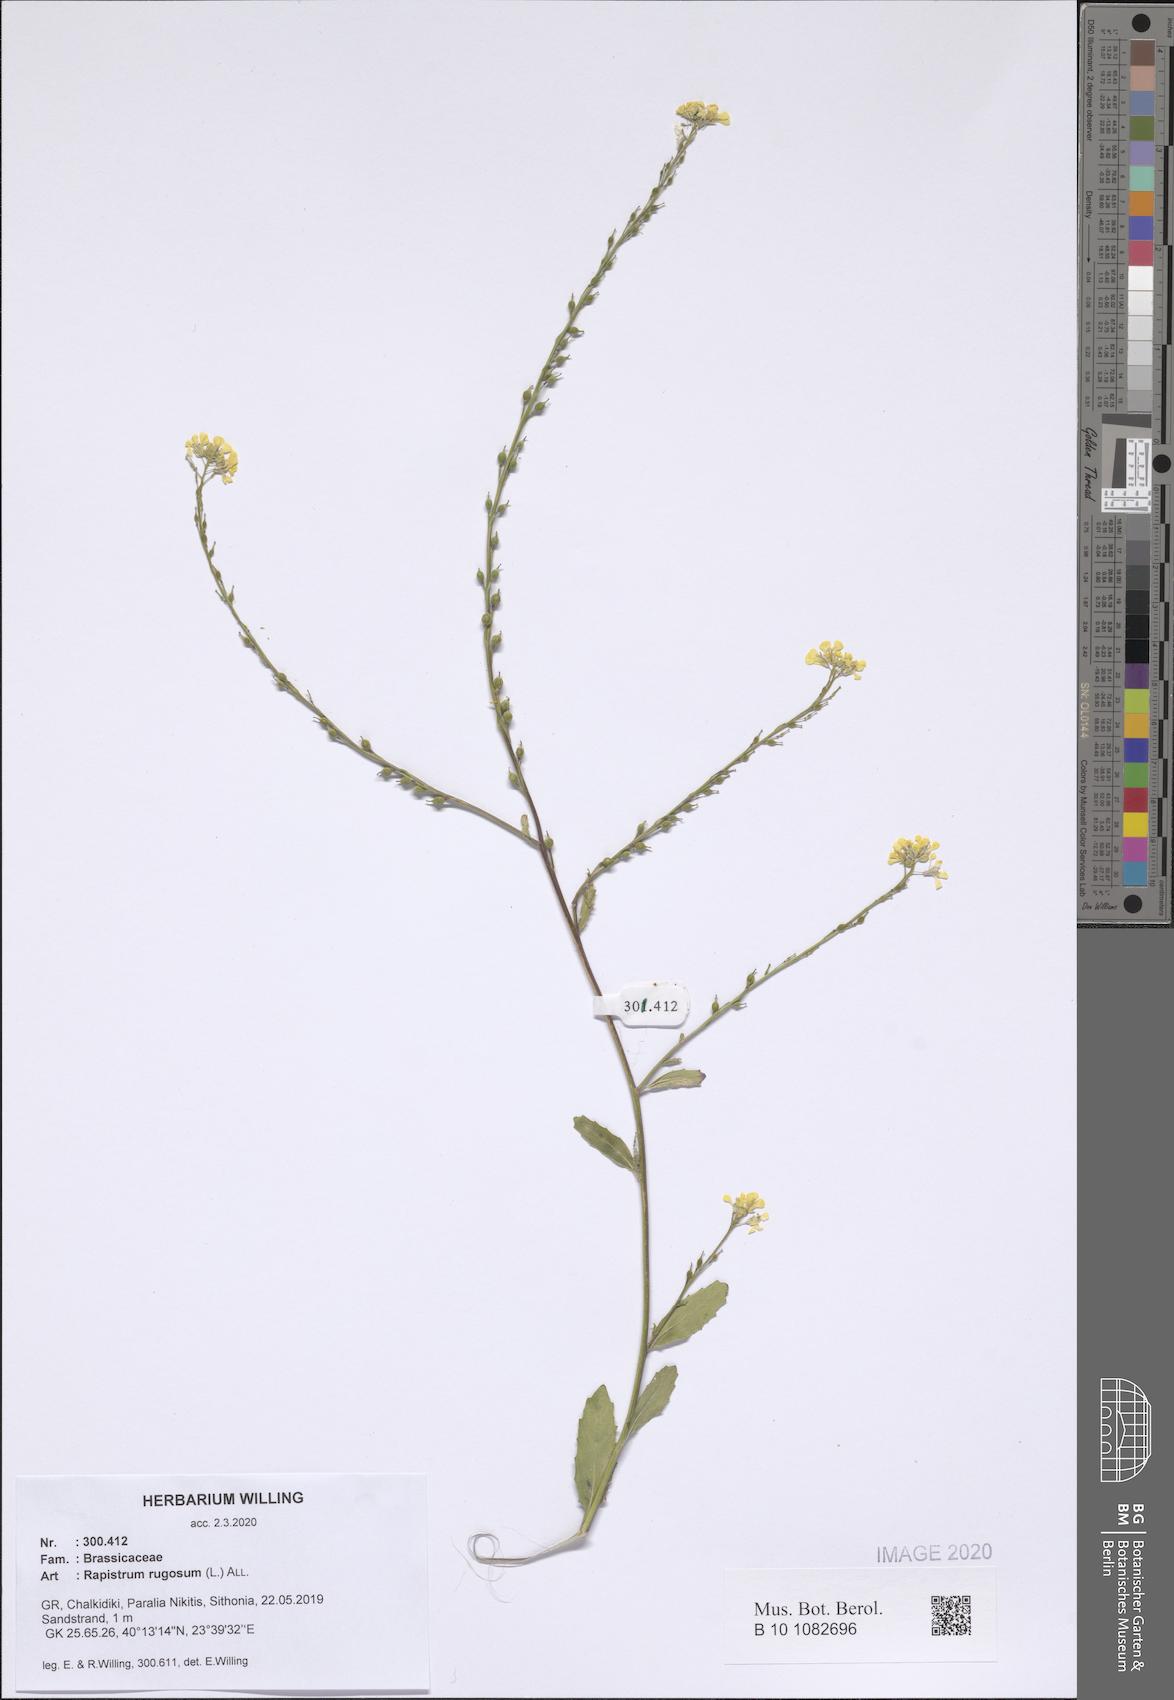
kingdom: Plantae
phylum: Tracheophyta
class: Magnoliopsida
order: Brassicales
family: Brassicaceae
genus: Rapistrum
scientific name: Rapistrum rugosum
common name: Annual bastardcabbage
